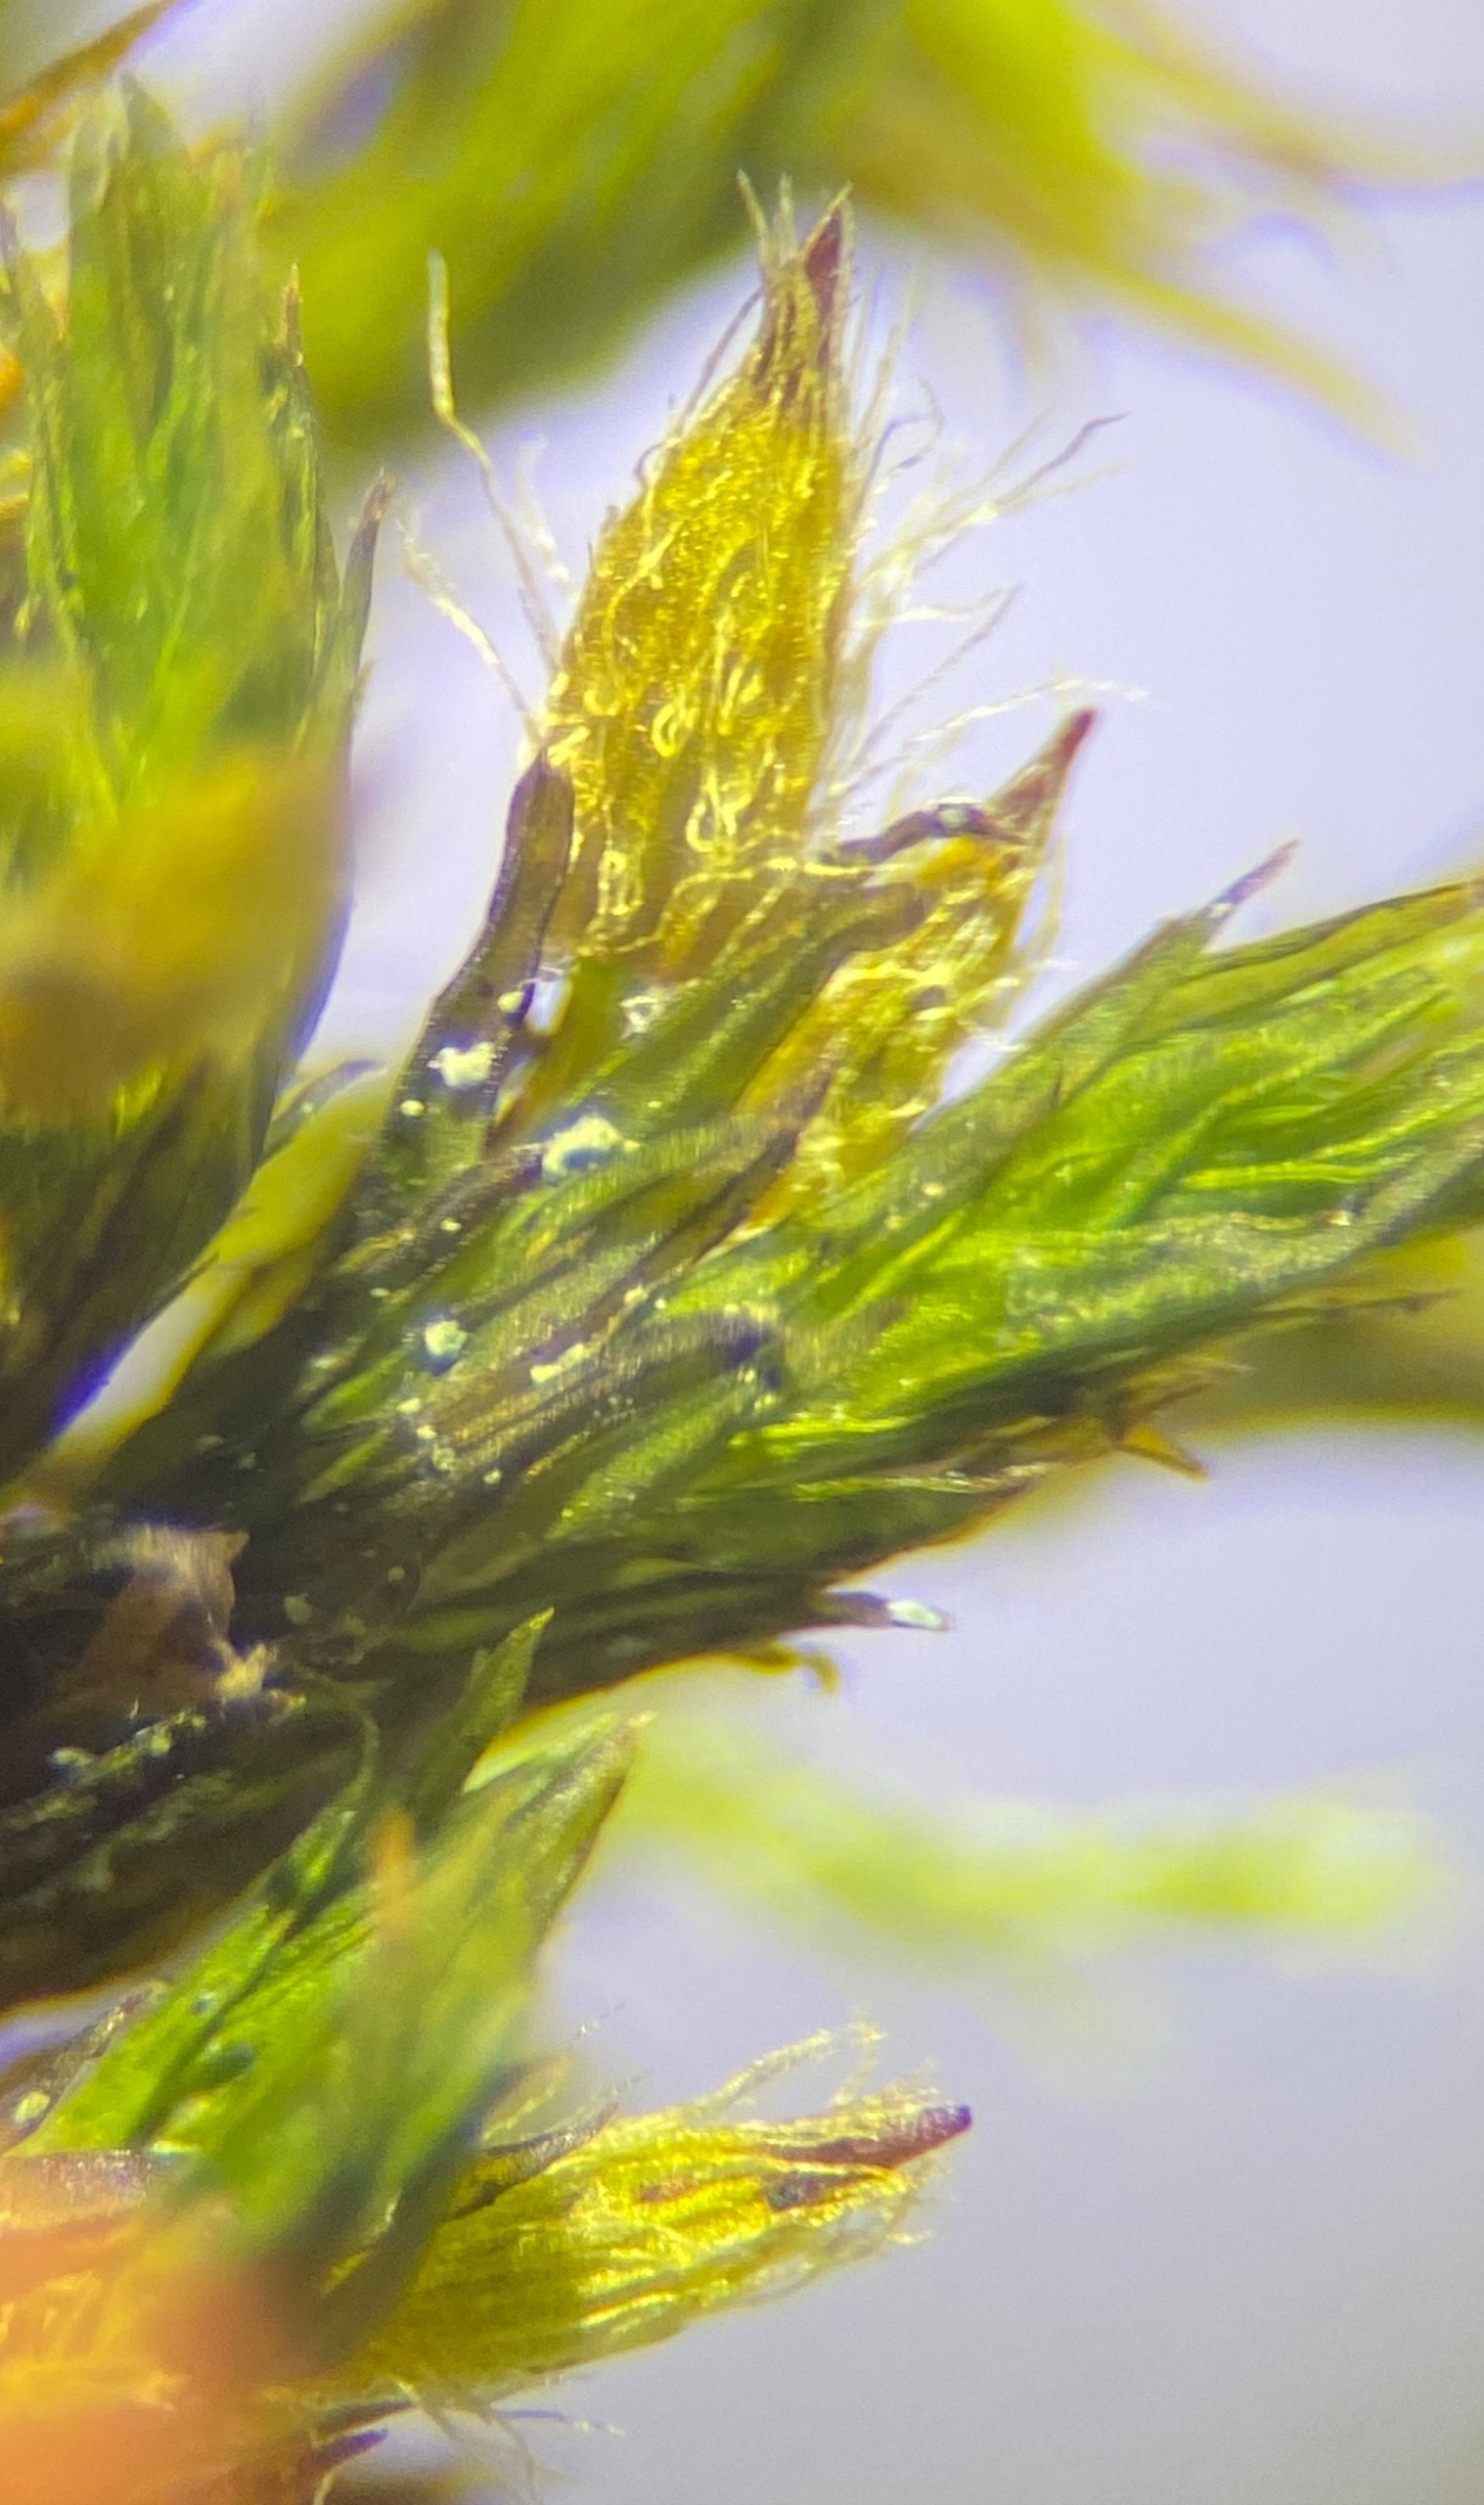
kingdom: Plantae
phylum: Bryophyta
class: Bryopsida
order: Orthotrichales
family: Orthotrichaceae
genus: Lewinskya
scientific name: Lewinskya speciosa
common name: Kortstribet furehætte
